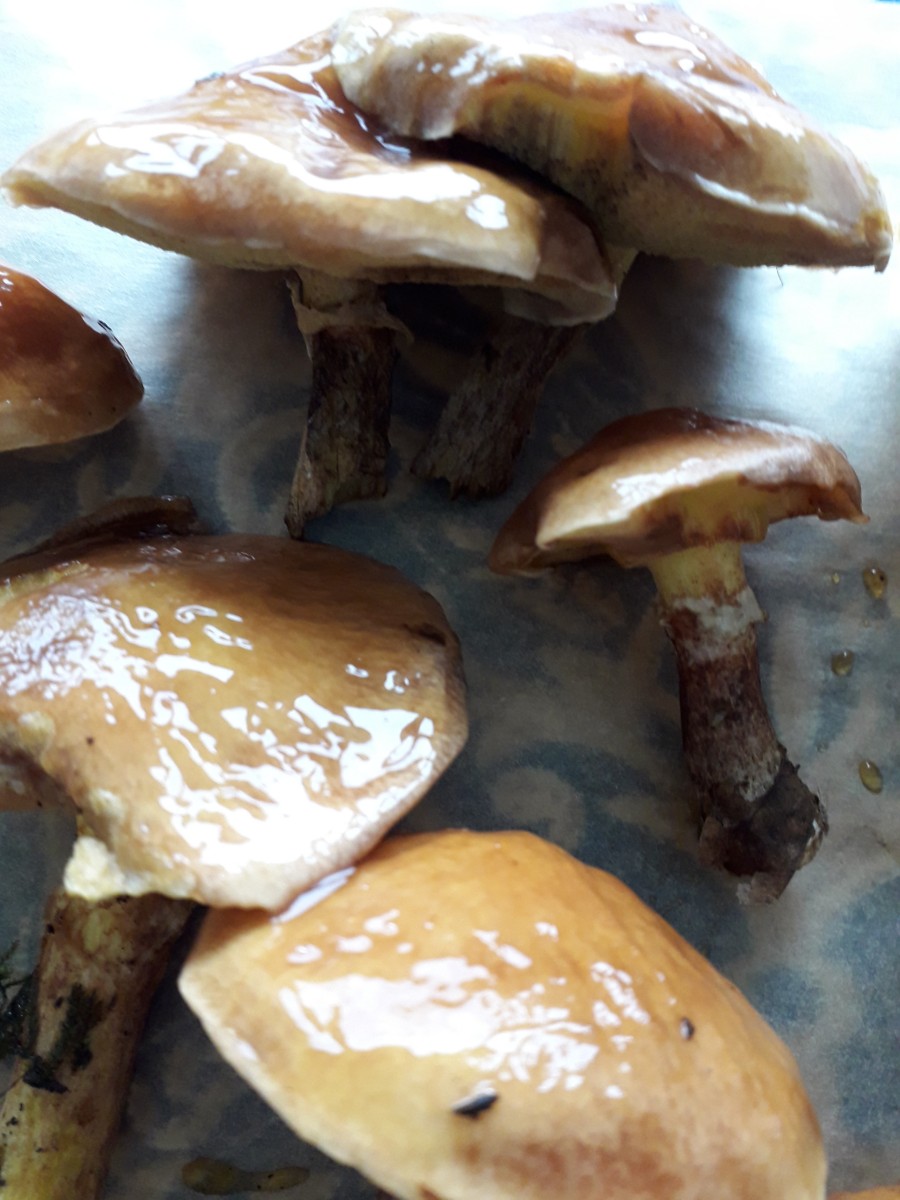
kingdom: Fungi
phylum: Basidiomycota
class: Agaricomycetes
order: Boletales
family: Suillaceae
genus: Suillus
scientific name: Suillus grevillei
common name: lærke-slimrørhat
